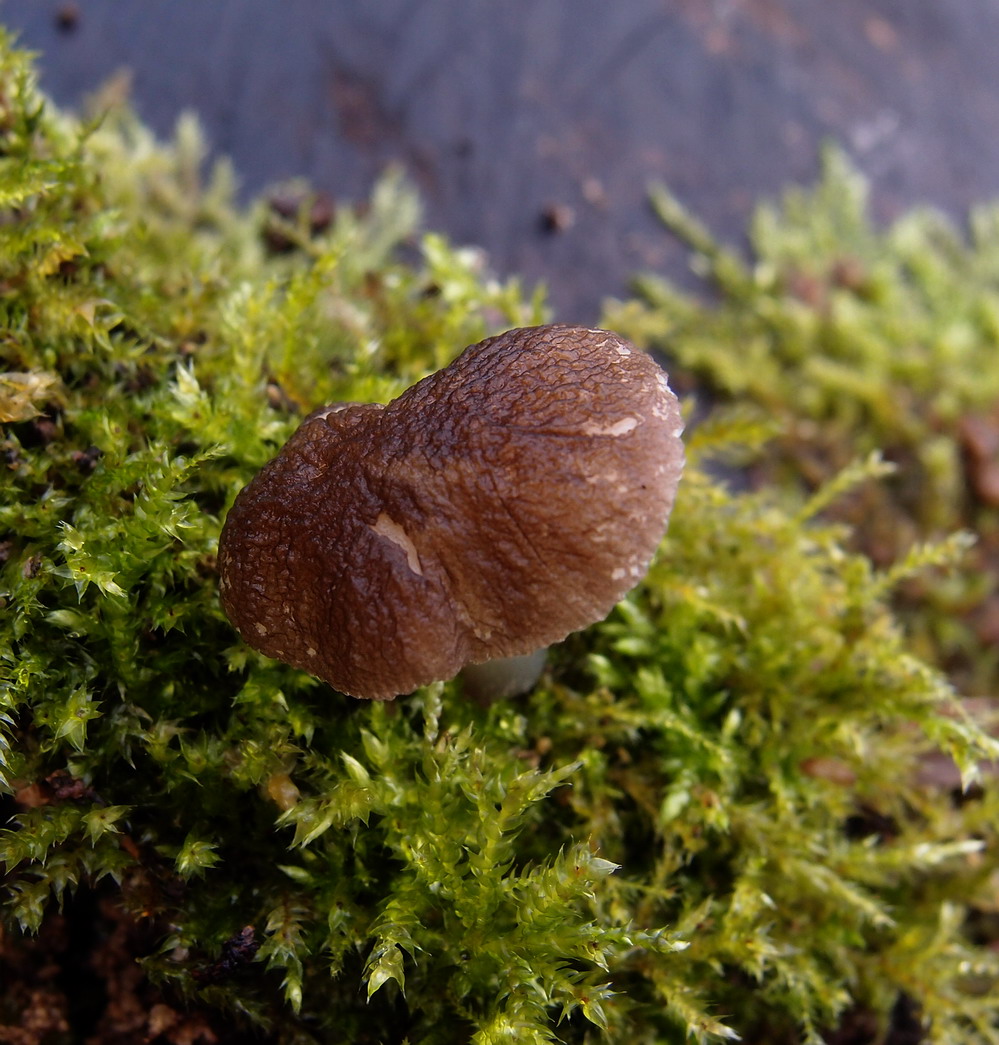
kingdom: Fungi
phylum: Basidiomycota
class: Agaricomycetes
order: Agaricales
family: Pluteaceae
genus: Pluteus
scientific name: Pluteus
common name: pudret skærmhat
